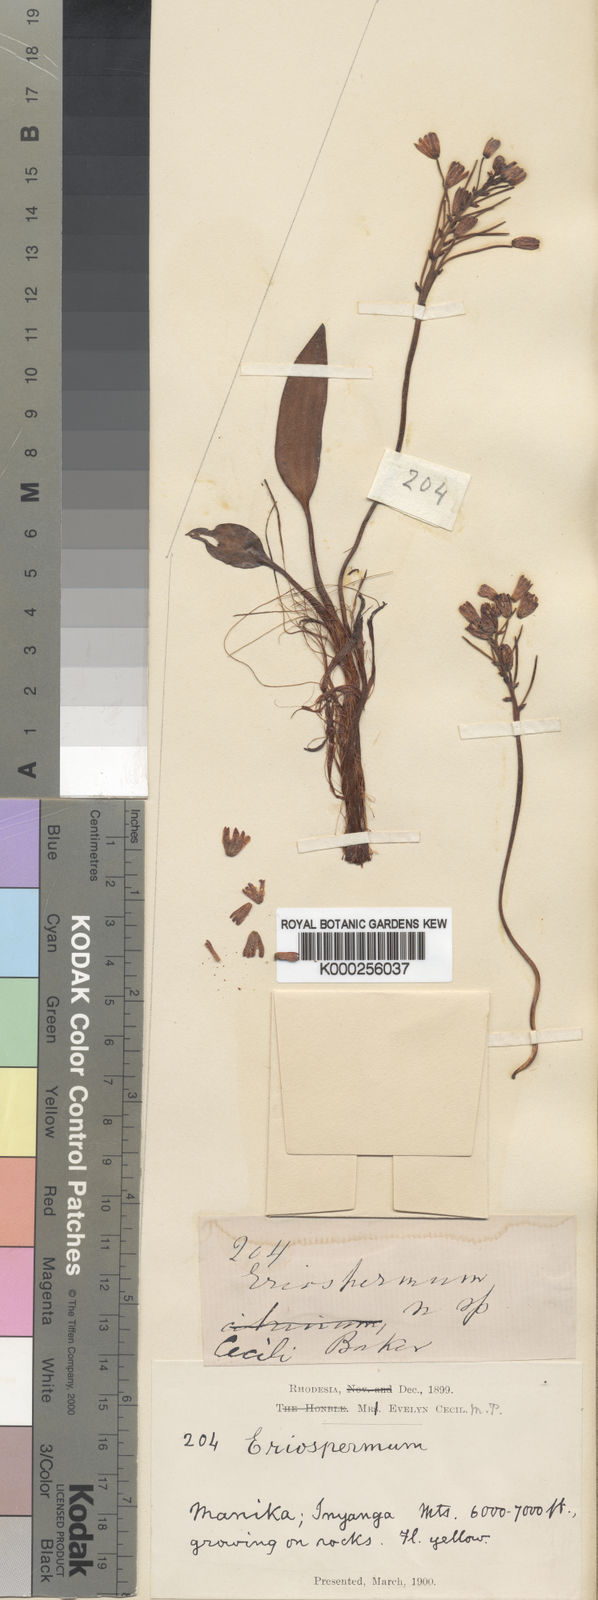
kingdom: Plantae
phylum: Tracheophyta
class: Liliopsida
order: Asparagales
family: Asparagaceae
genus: Eriospermum
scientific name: Eriospermum cecilii
